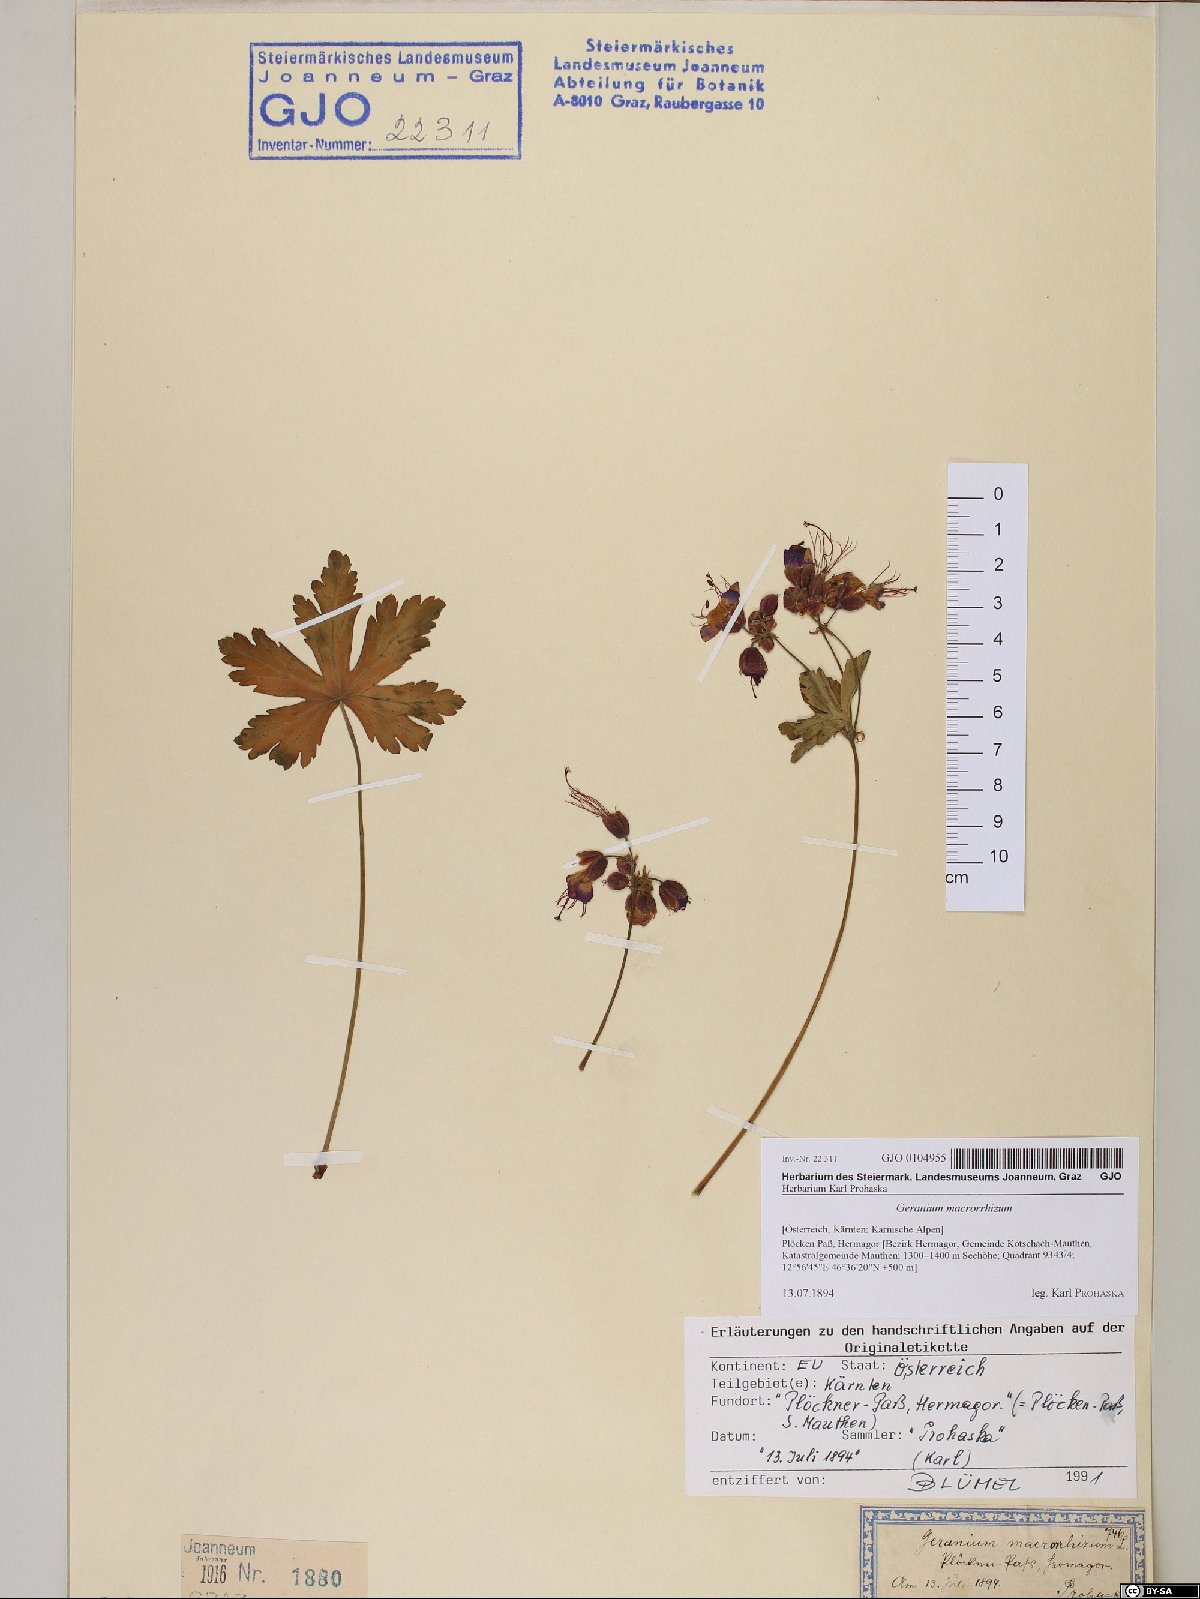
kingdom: Plantae
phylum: Tracheophyta
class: Magnoliopsida
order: Geraniales
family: Geraniaceae
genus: Geranium
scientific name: Geranium macrorrhizum
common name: Rock crane's-bill
